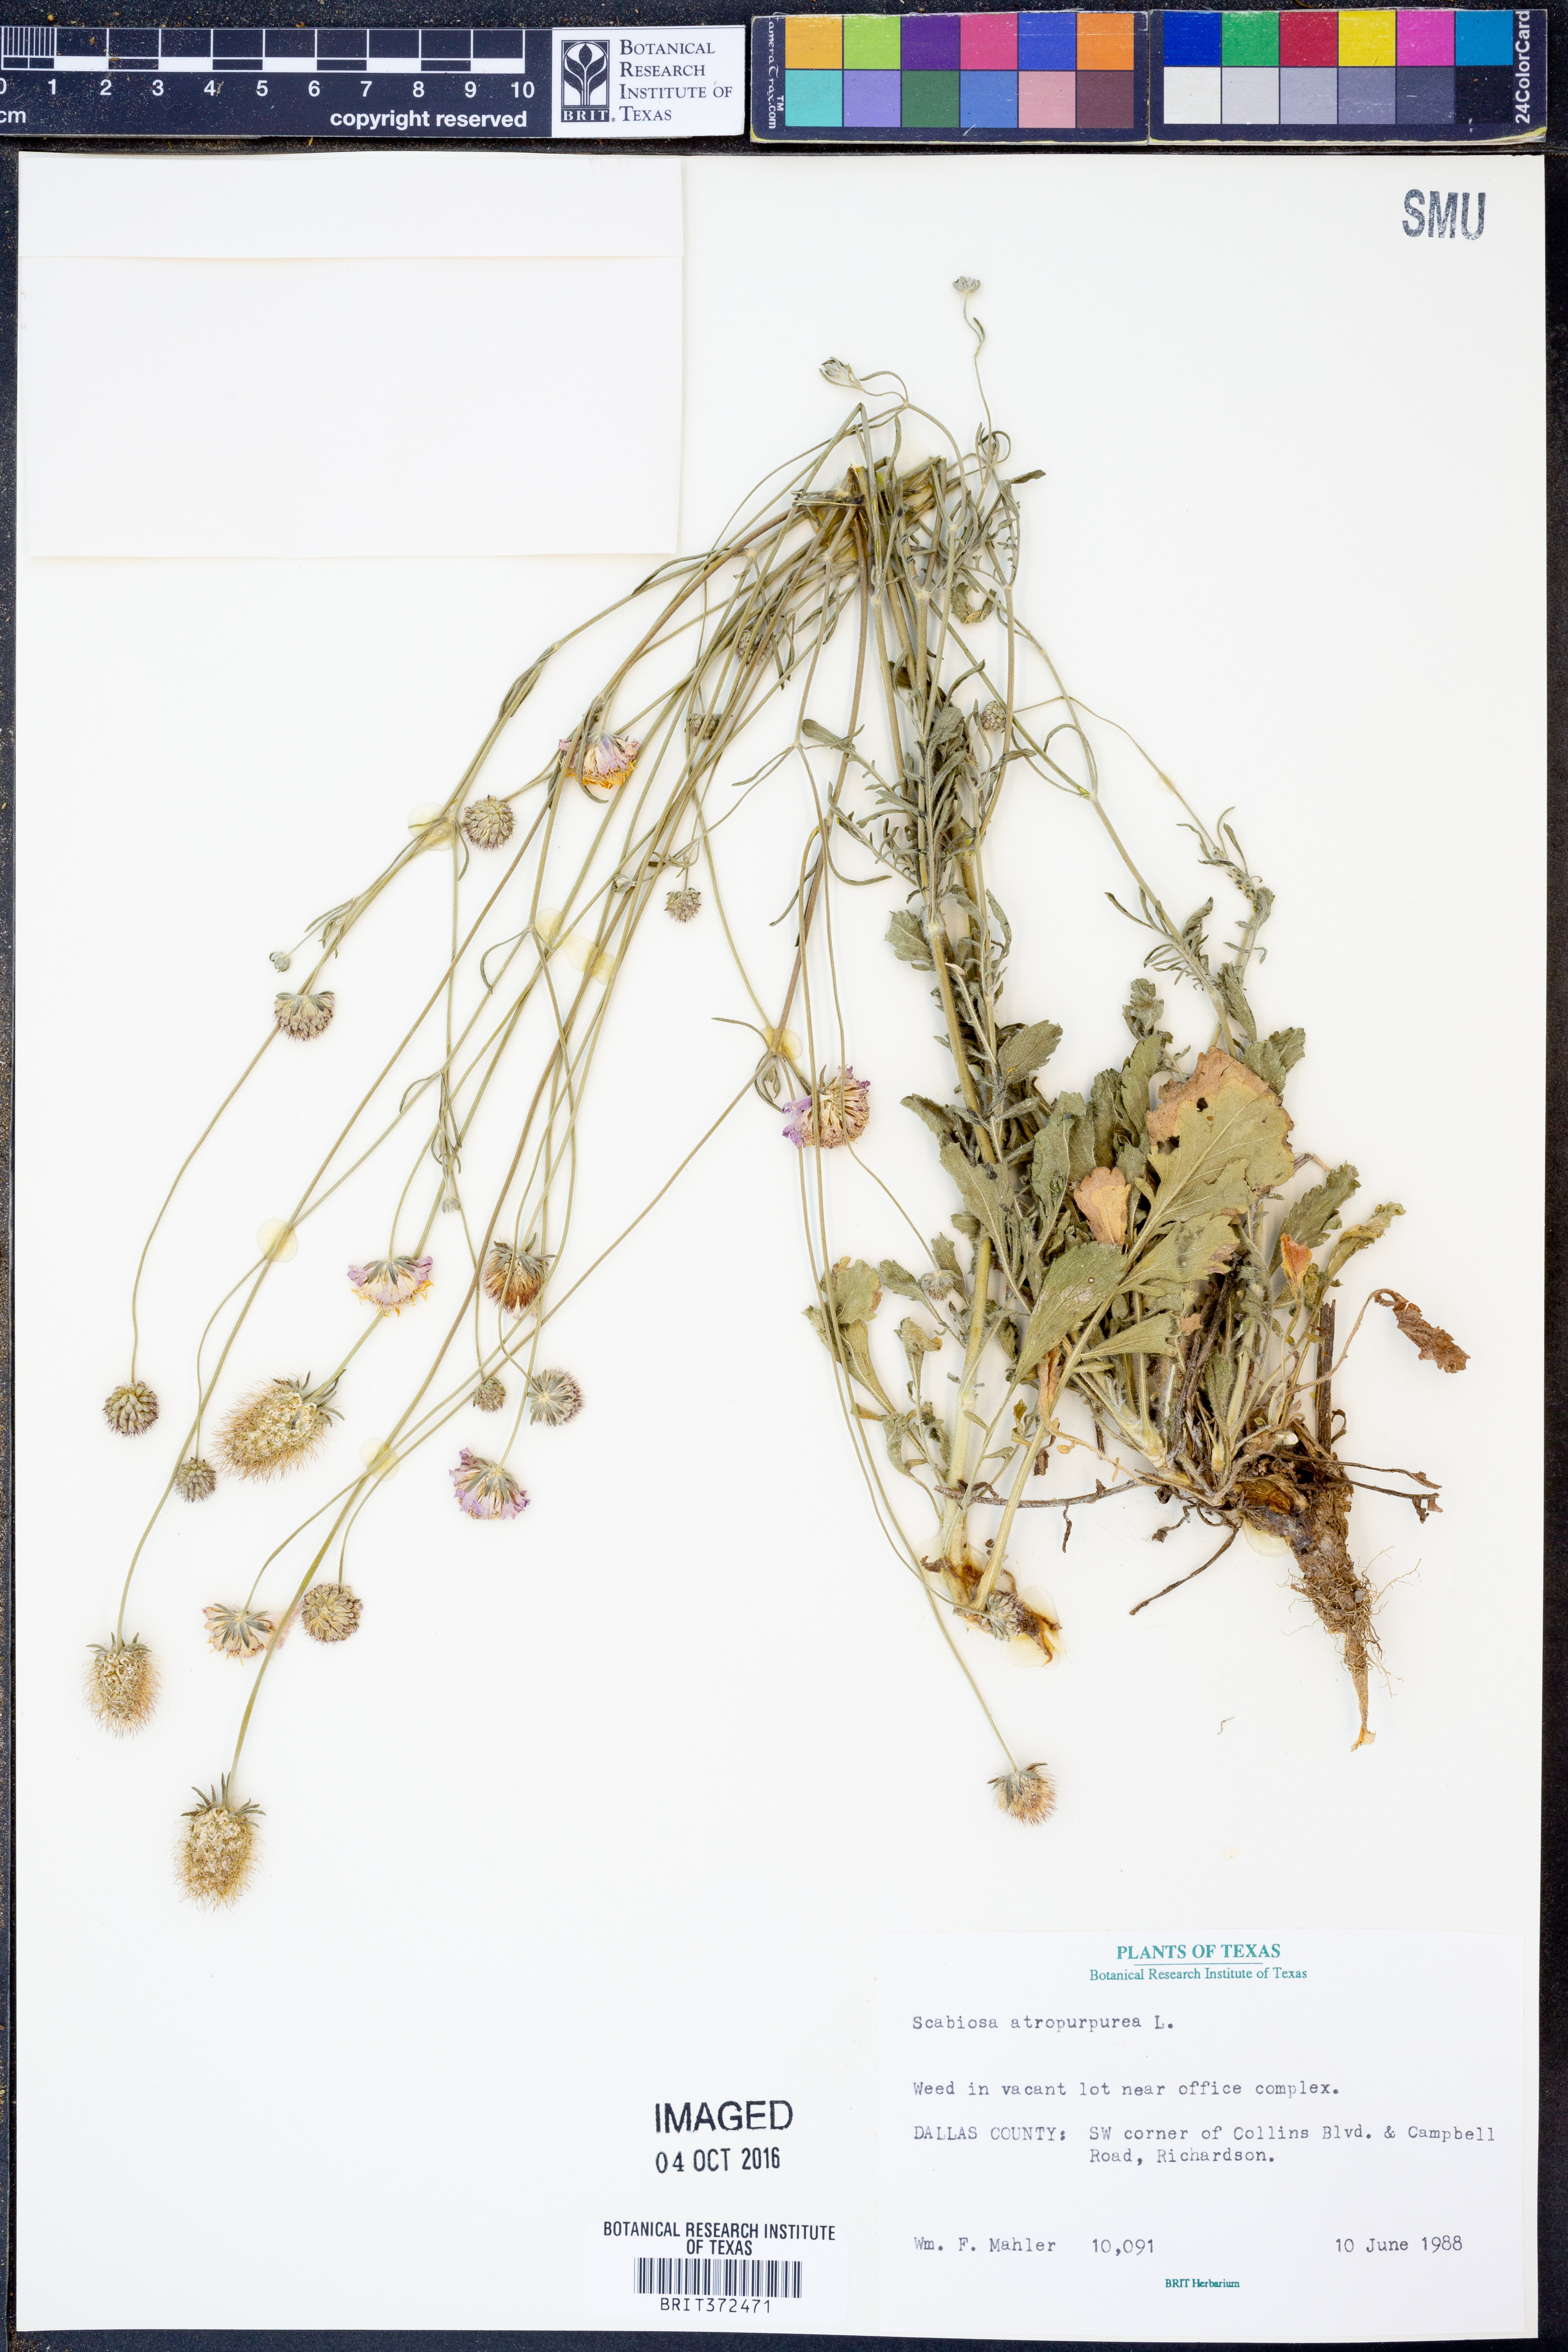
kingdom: Plantae
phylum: Tracheophyta
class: Magnoliopsida
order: Dipsacales
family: Caprifoliaceae
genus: Sixalix
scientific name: Sixalix atropurpurea
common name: Sweet scabious
